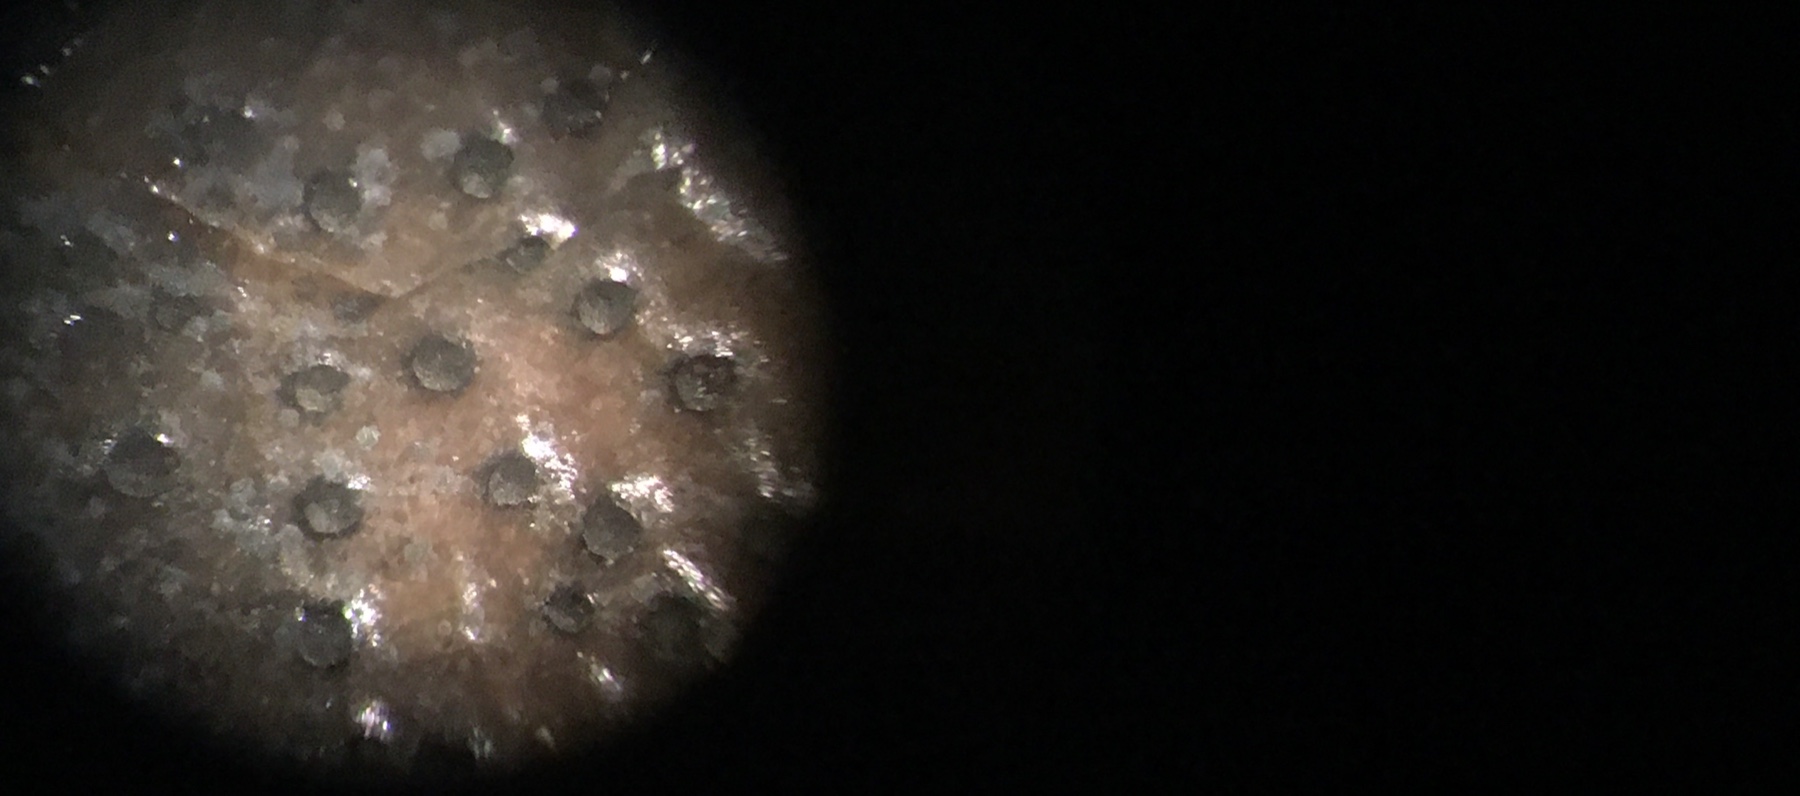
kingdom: Fungi
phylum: Ascomycota
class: Leotiomycetes
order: Helotiales
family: Cenangiaceae
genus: Trochila
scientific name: Trochila ilicina
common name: kristtorn-lågskive
